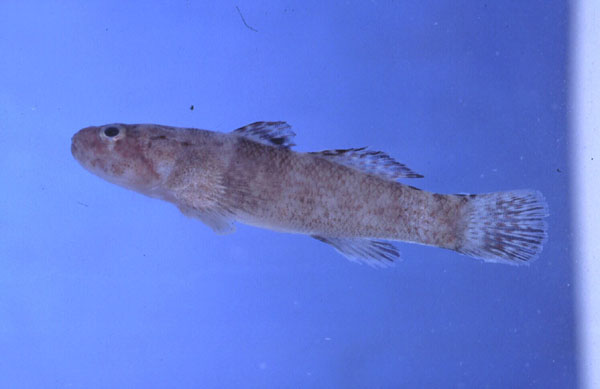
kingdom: Animalia
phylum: Chordata
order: Perciformes
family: Gobiidae
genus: Bathygobius
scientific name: Bathygobius cotticeps
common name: Cheekscaled frillgoby
